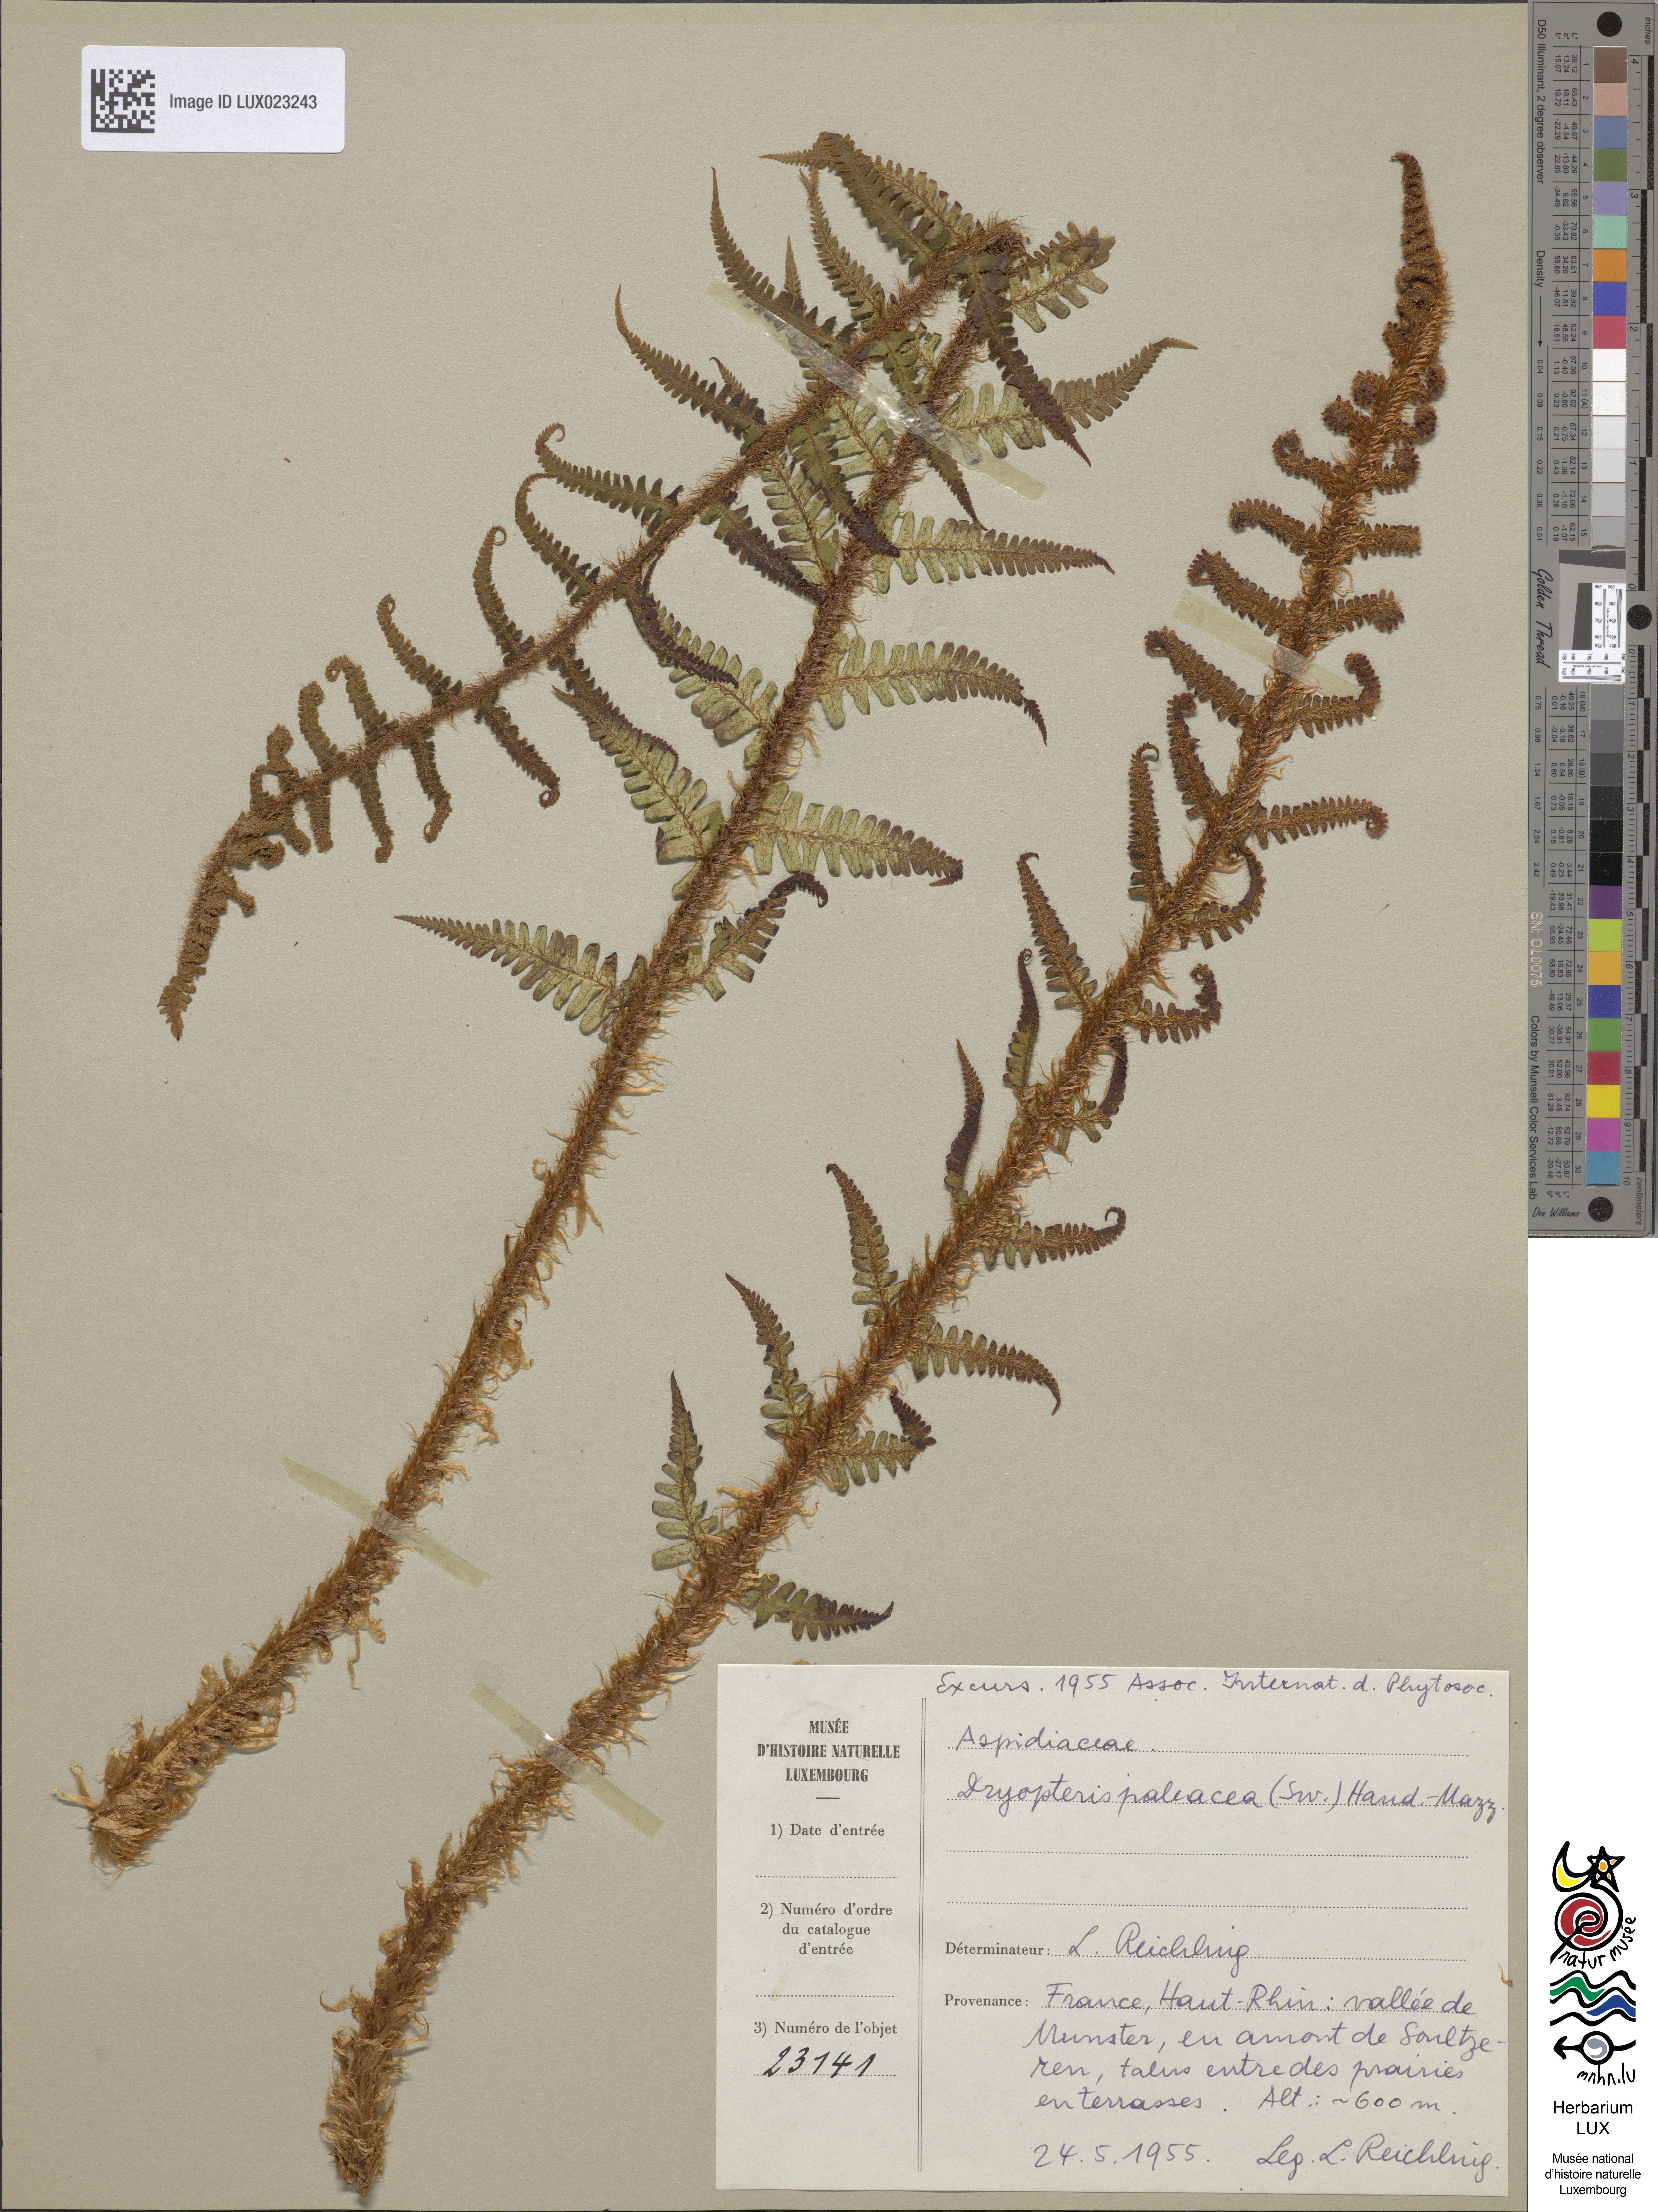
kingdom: Plantae
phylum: Tracheophyta
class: Polypodiopsida
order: Polypodiales
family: Dryopteridaceae
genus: Dryopteris
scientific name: Dryopteris borreri
